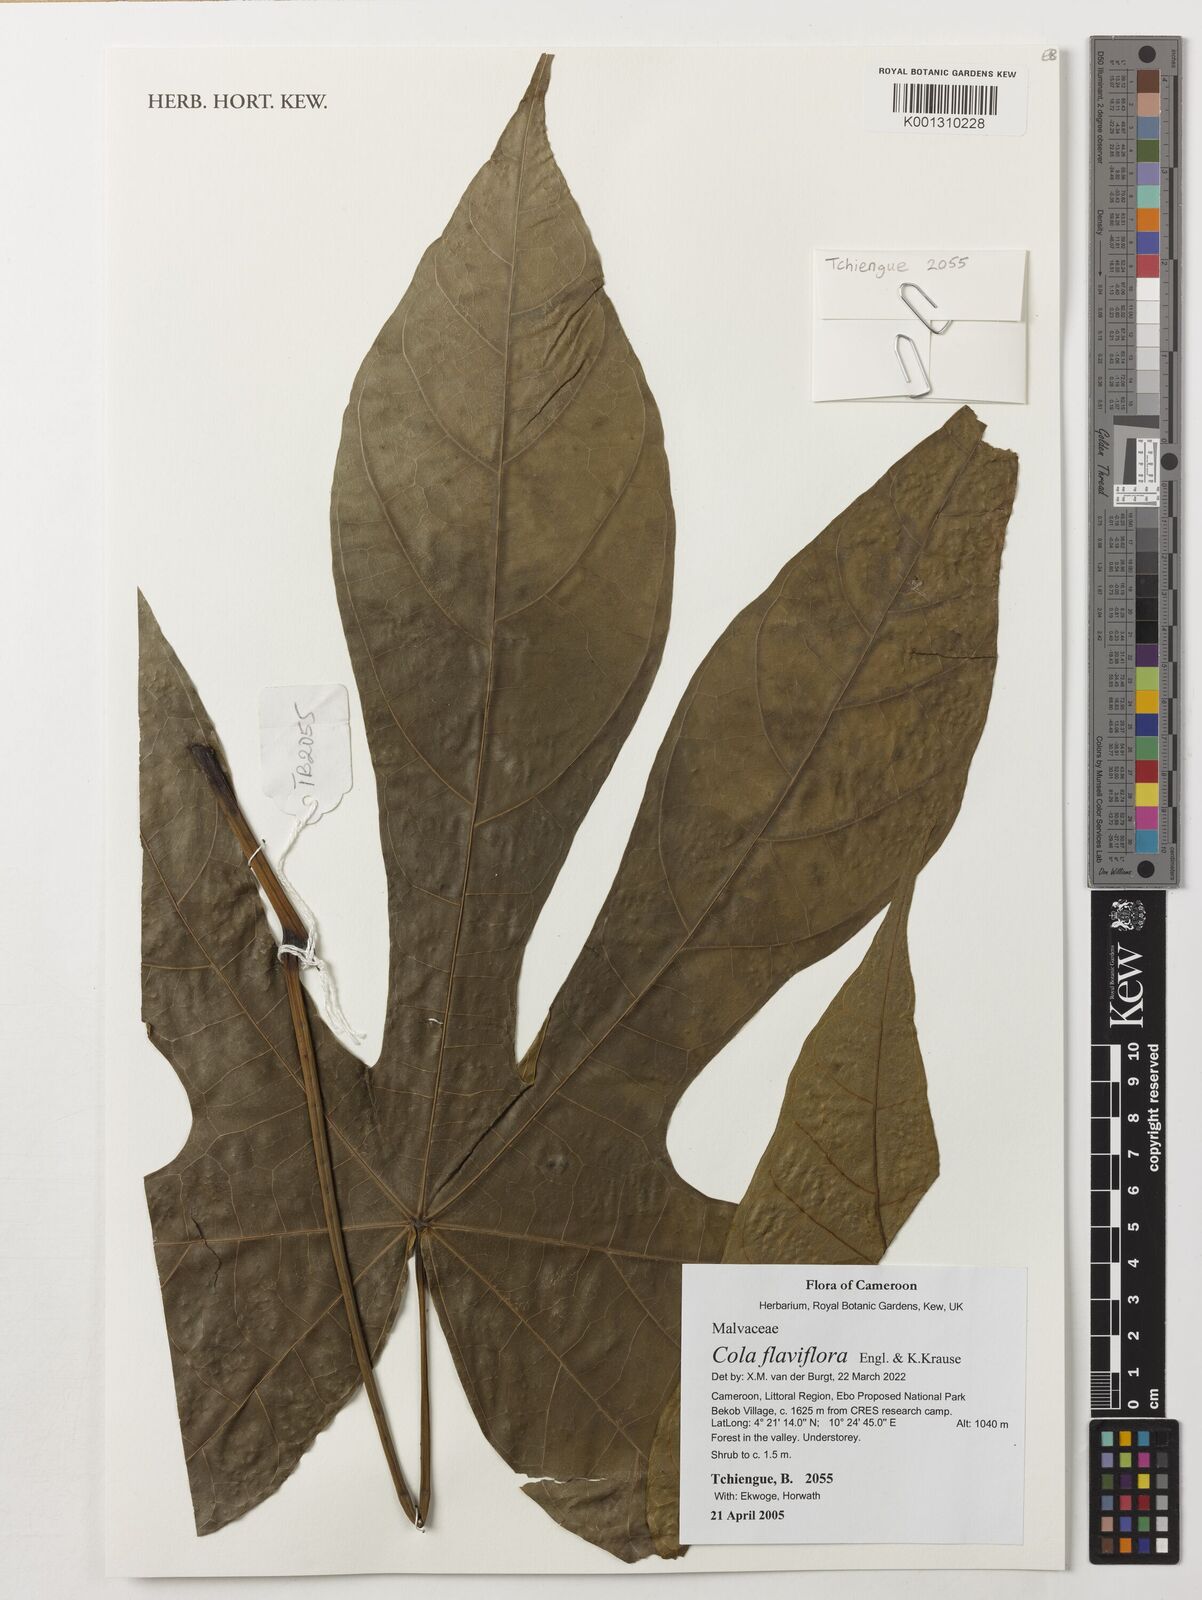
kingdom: Plantae
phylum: Tracheophyta
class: Magnoliopsida
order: Malvales
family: Malvaceae
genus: Cola
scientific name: Cola flaviflora
